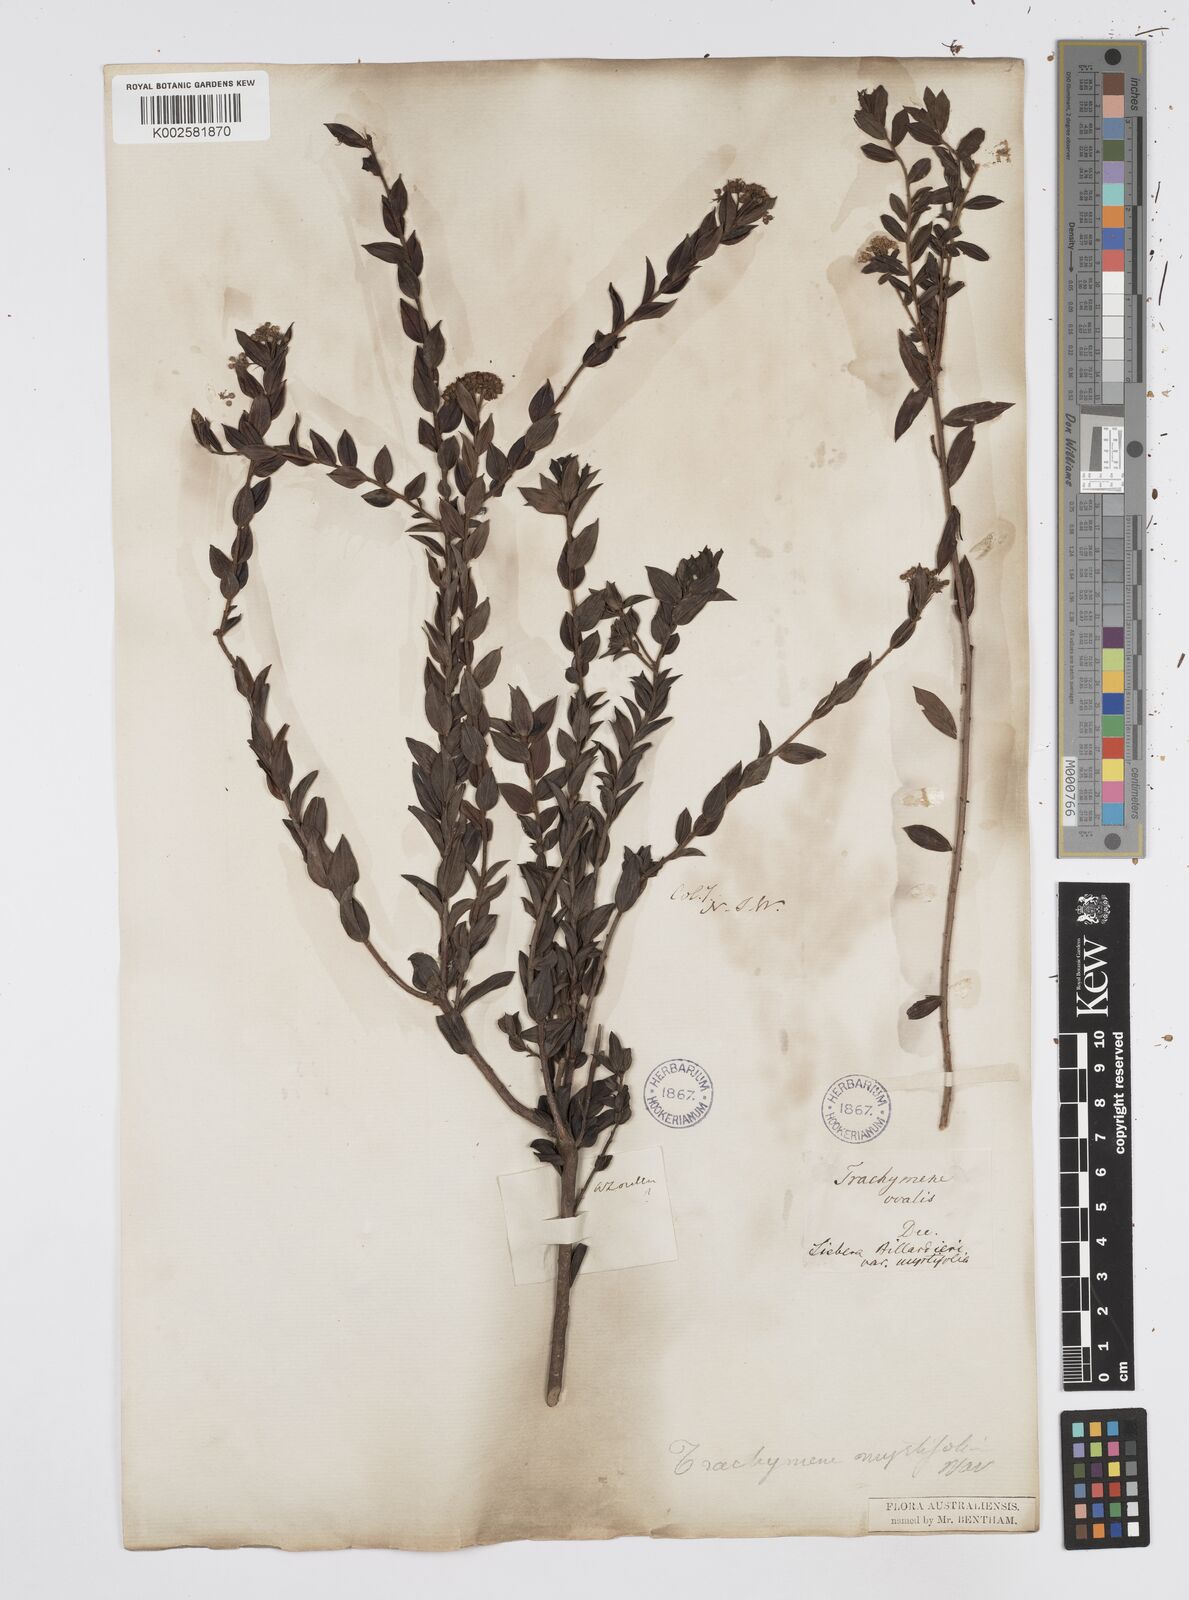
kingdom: Plantae
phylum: Tracheophyta
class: Magnoliopsida
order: Apiales
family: Apiaceae
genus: Platysace
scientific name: Platysace lanceolata
